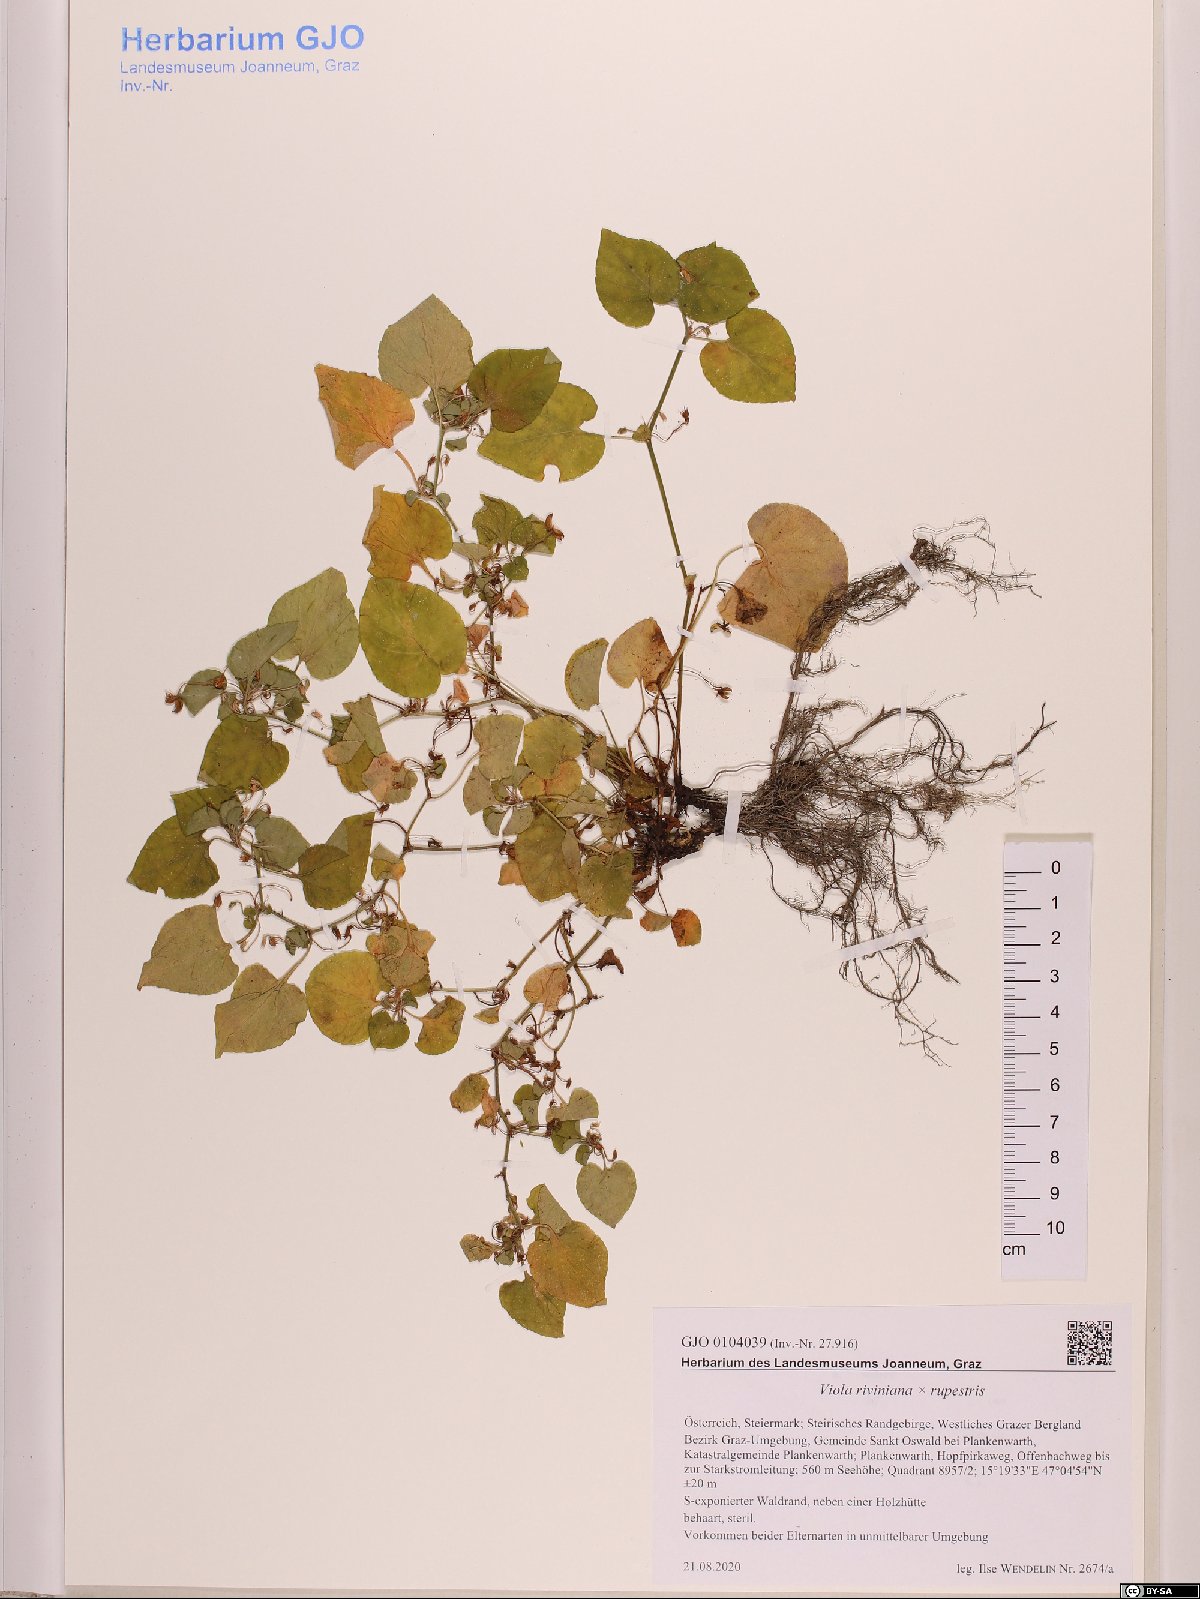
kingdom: Plantae
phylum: Tracheophyta
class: Magnoliopsida
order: Malpighiales
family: Violaceae
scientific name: Violaceae
